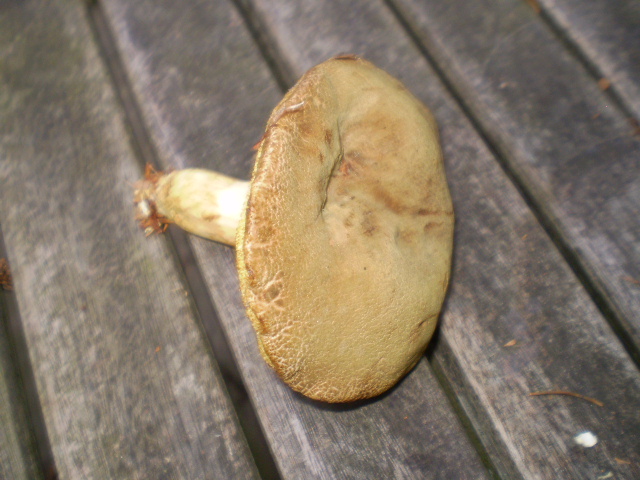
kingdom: Fungi
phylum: Basidiomycota
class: Agaricomycetes
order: Boletales
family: Boletaceae
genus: Xerocomus
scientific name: Xerocomus ferrugineus
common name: vaskeskinds-rørhat
